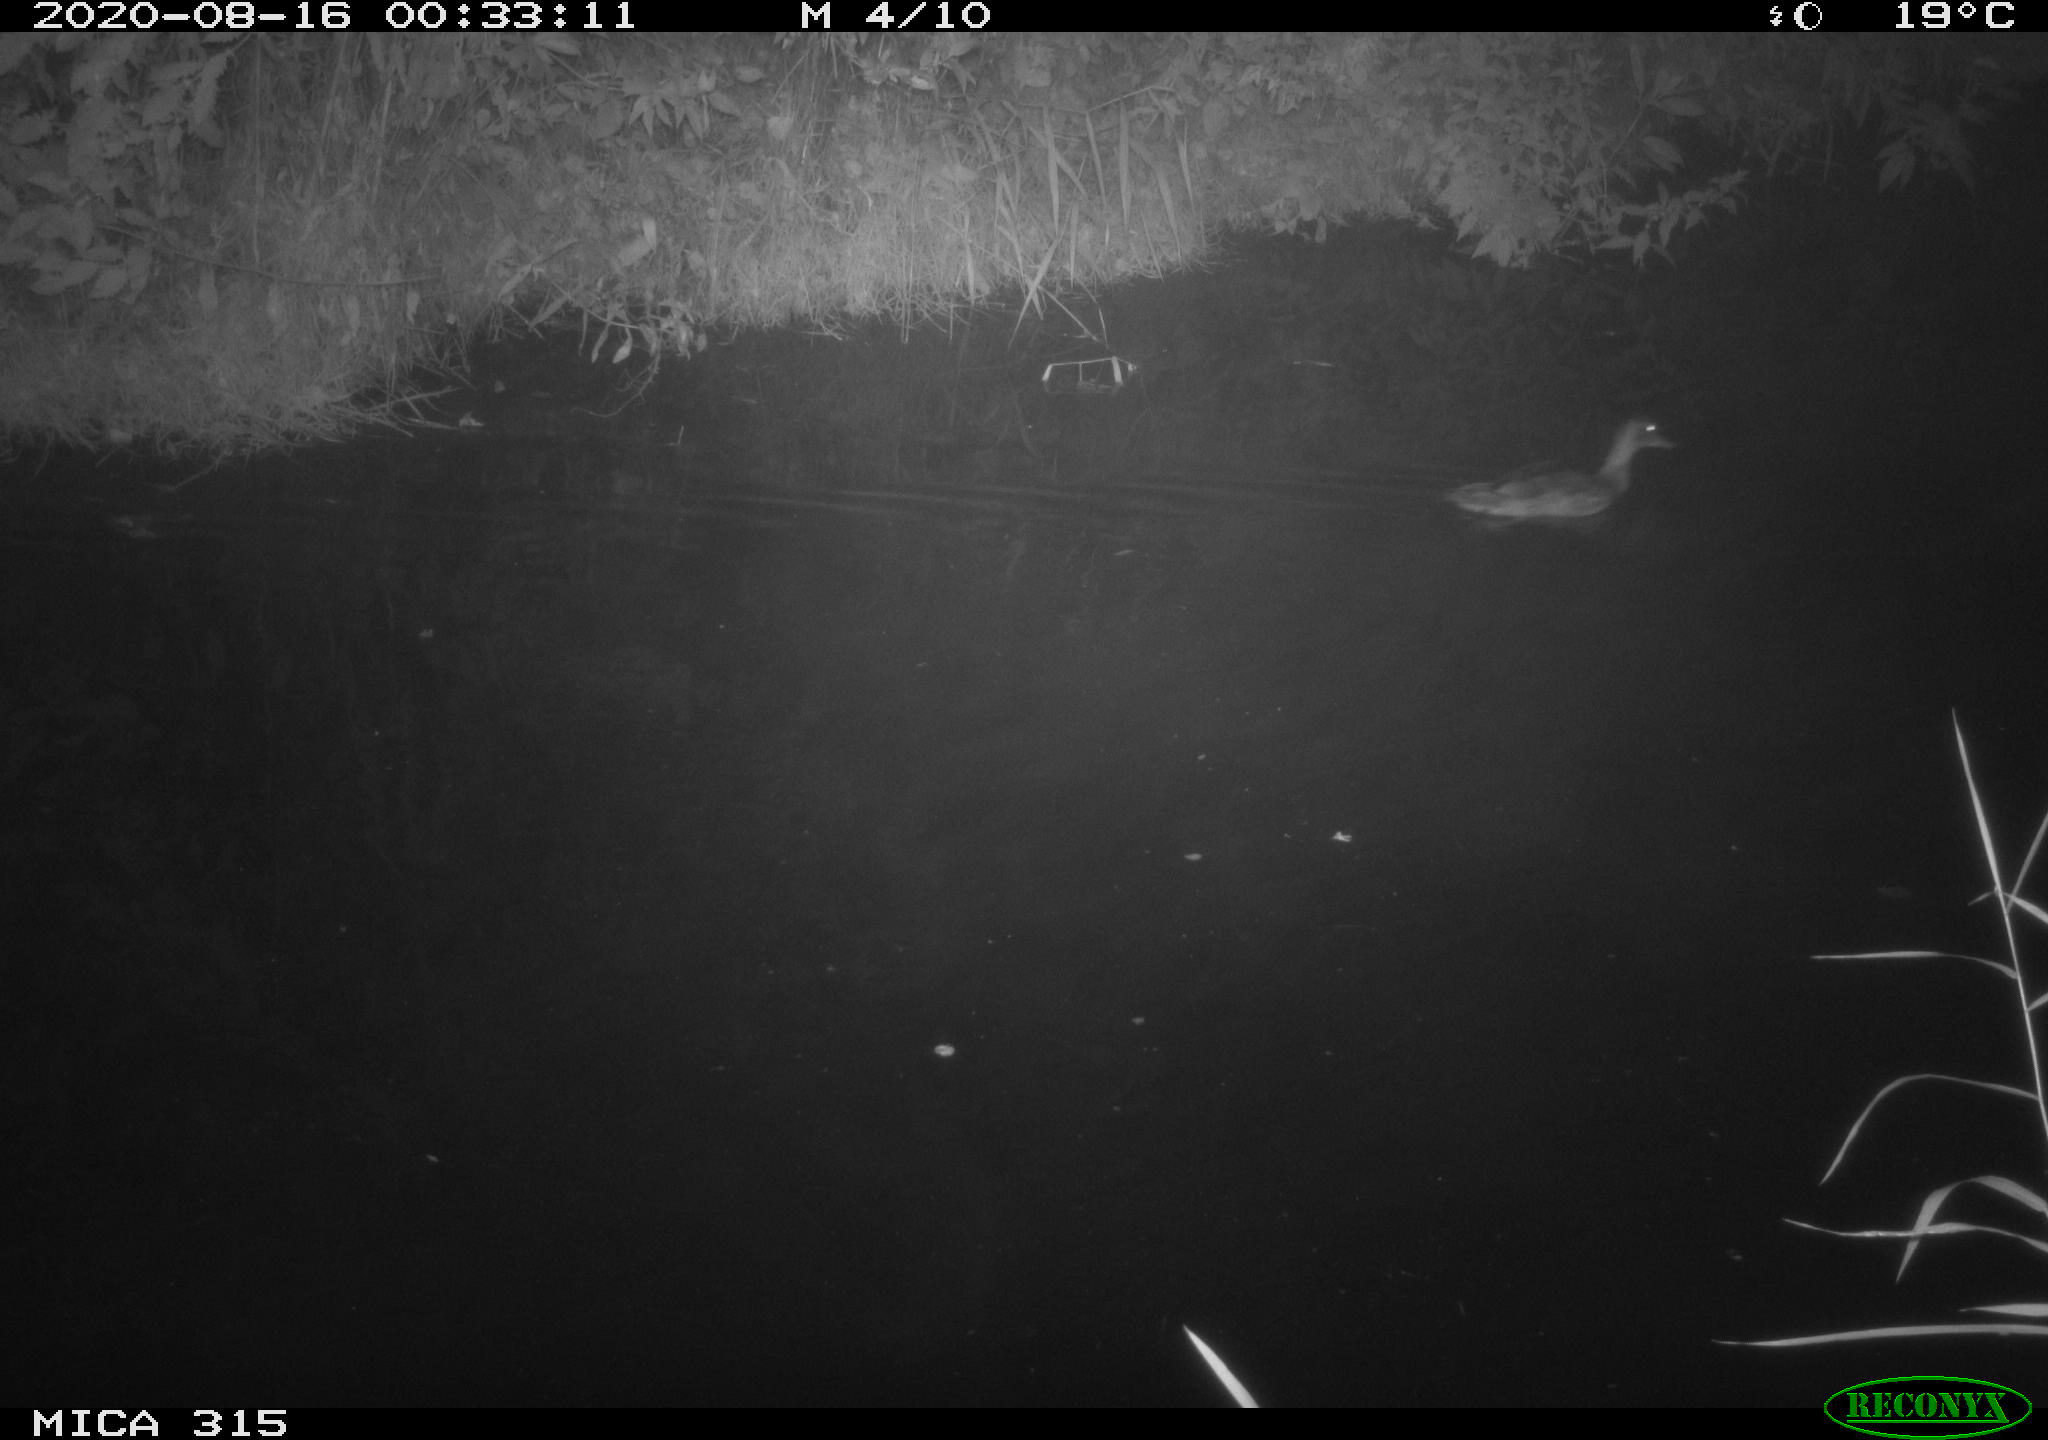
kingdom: Animalia
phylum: Chordata
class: Aves
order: Anseriformes
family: Anatidae
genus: Anas
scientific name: Anas platyrhynchos
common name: Mallard
